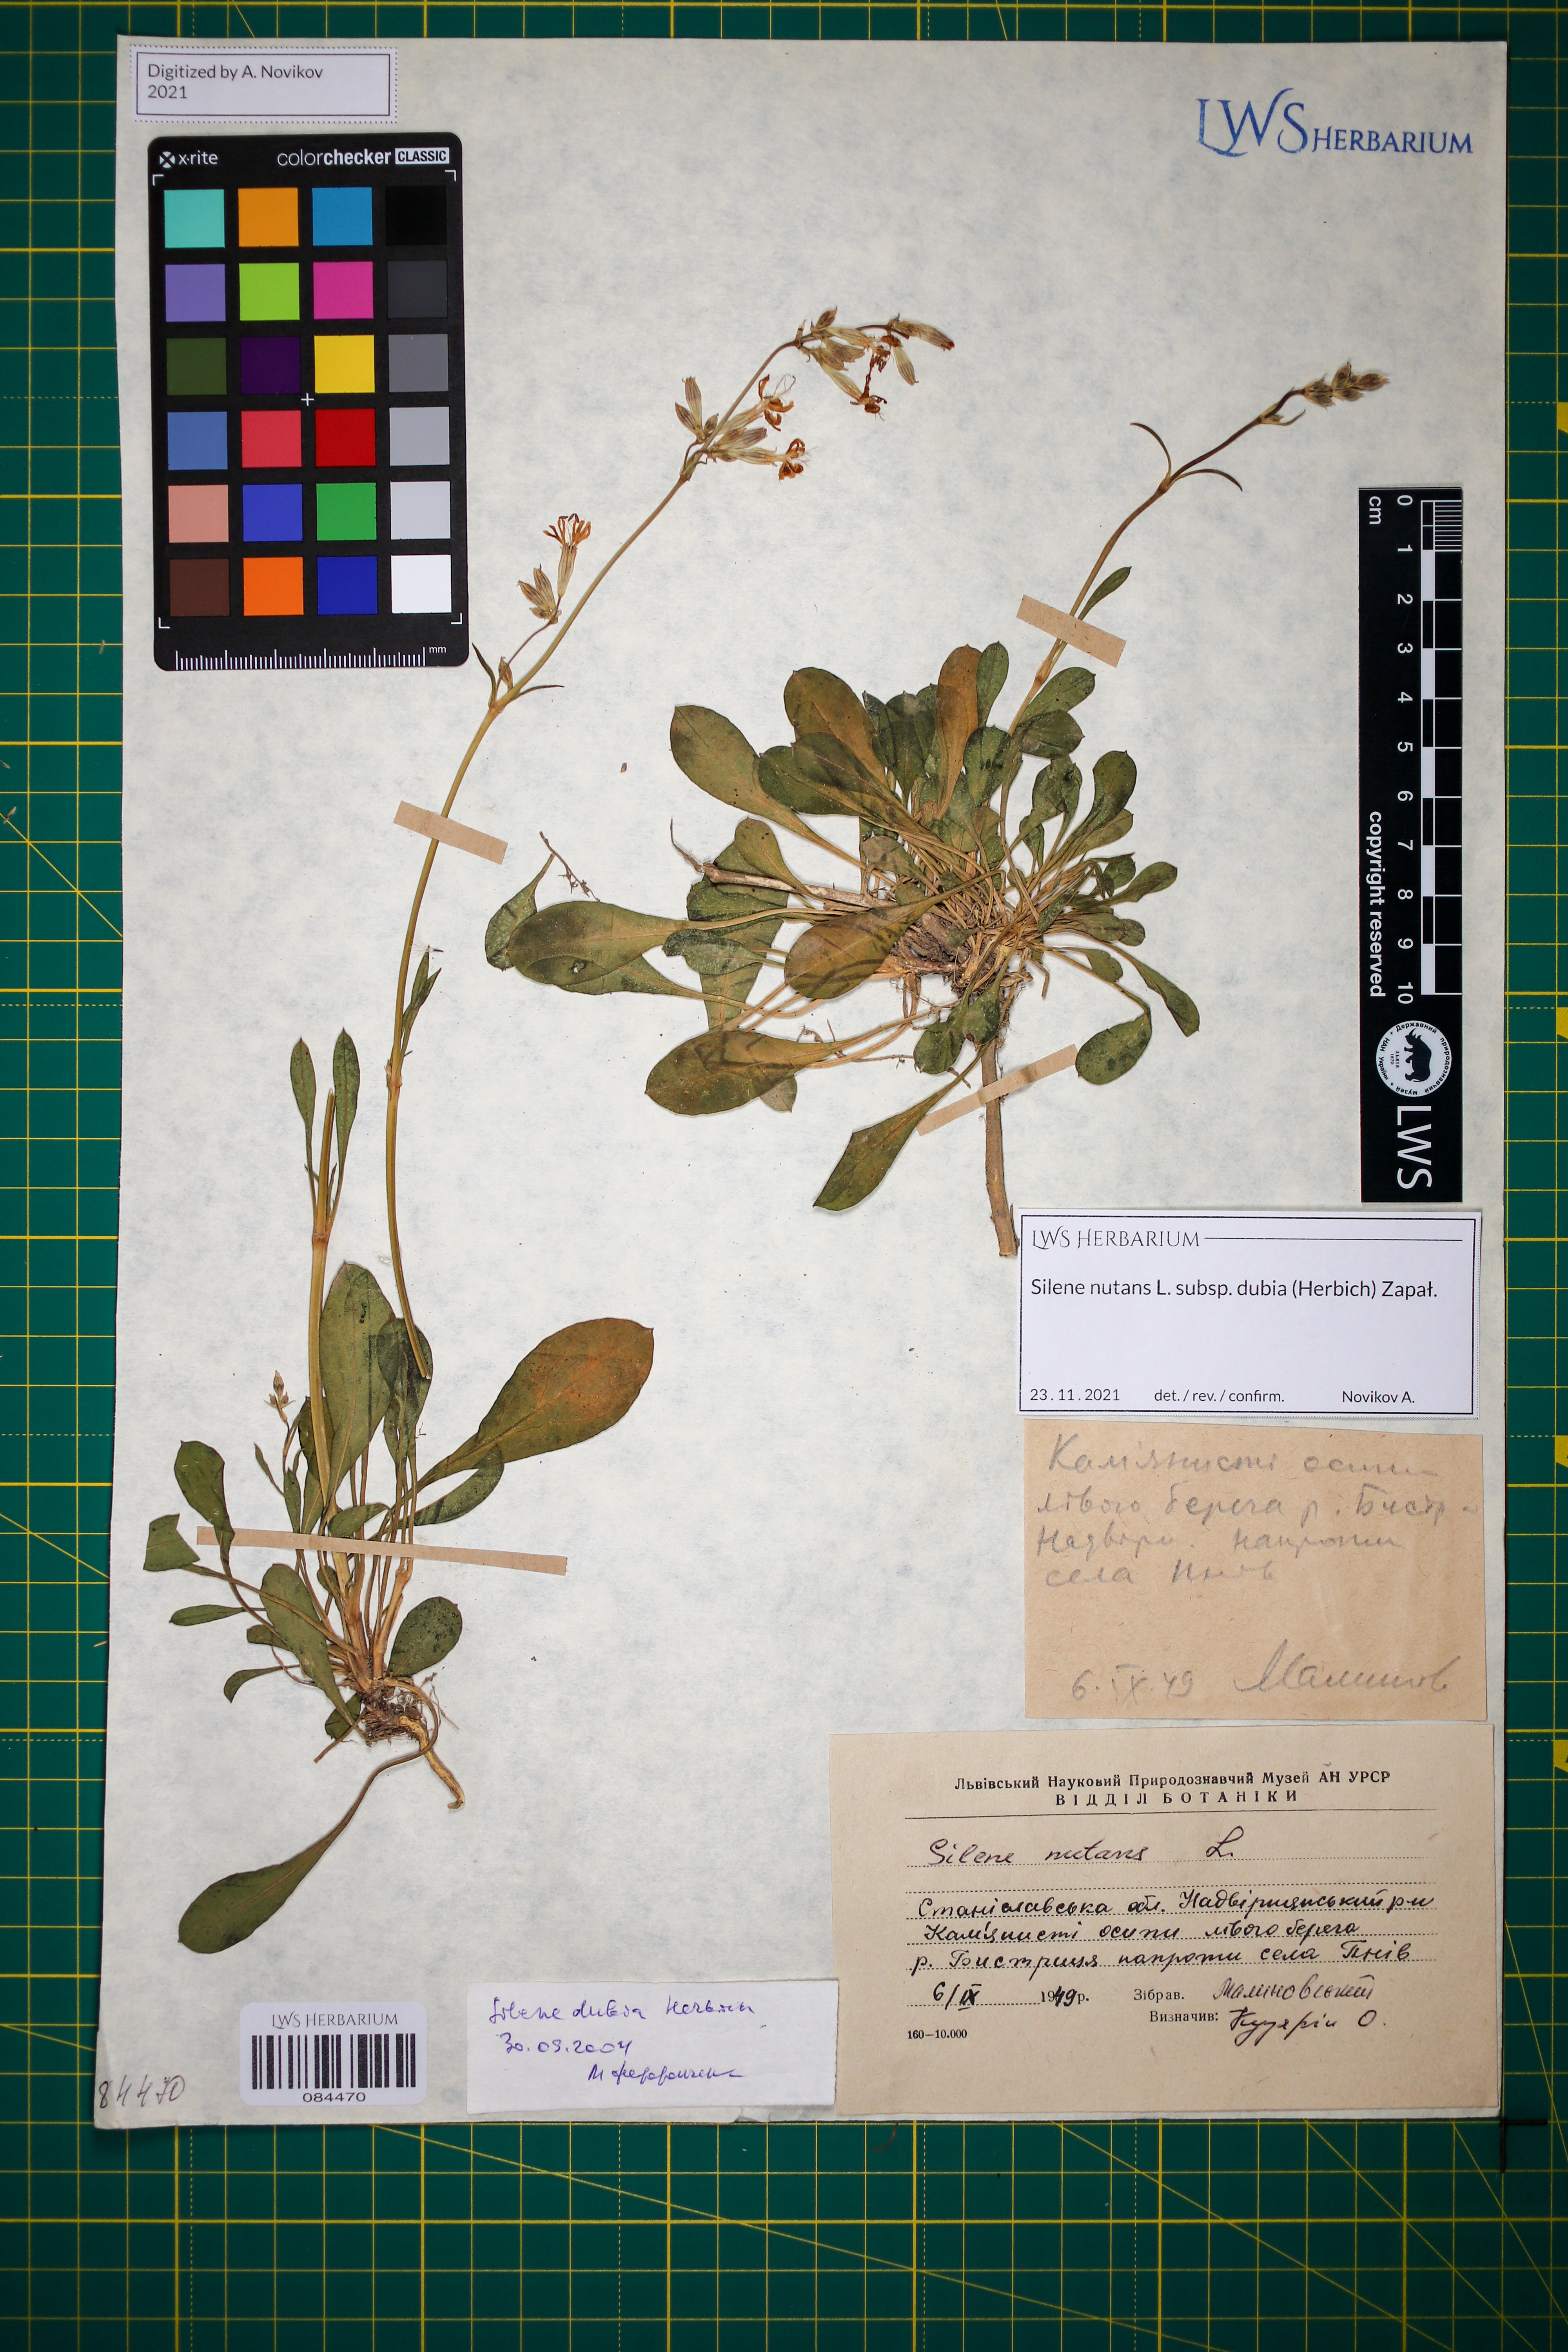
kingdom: Plantae
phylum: Tracheophyta
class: Magnoliopsida
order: Caryophyllales
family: Caryophyllaceae
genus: Silene
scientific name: Silene nutans
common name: Nottingham catchfly
